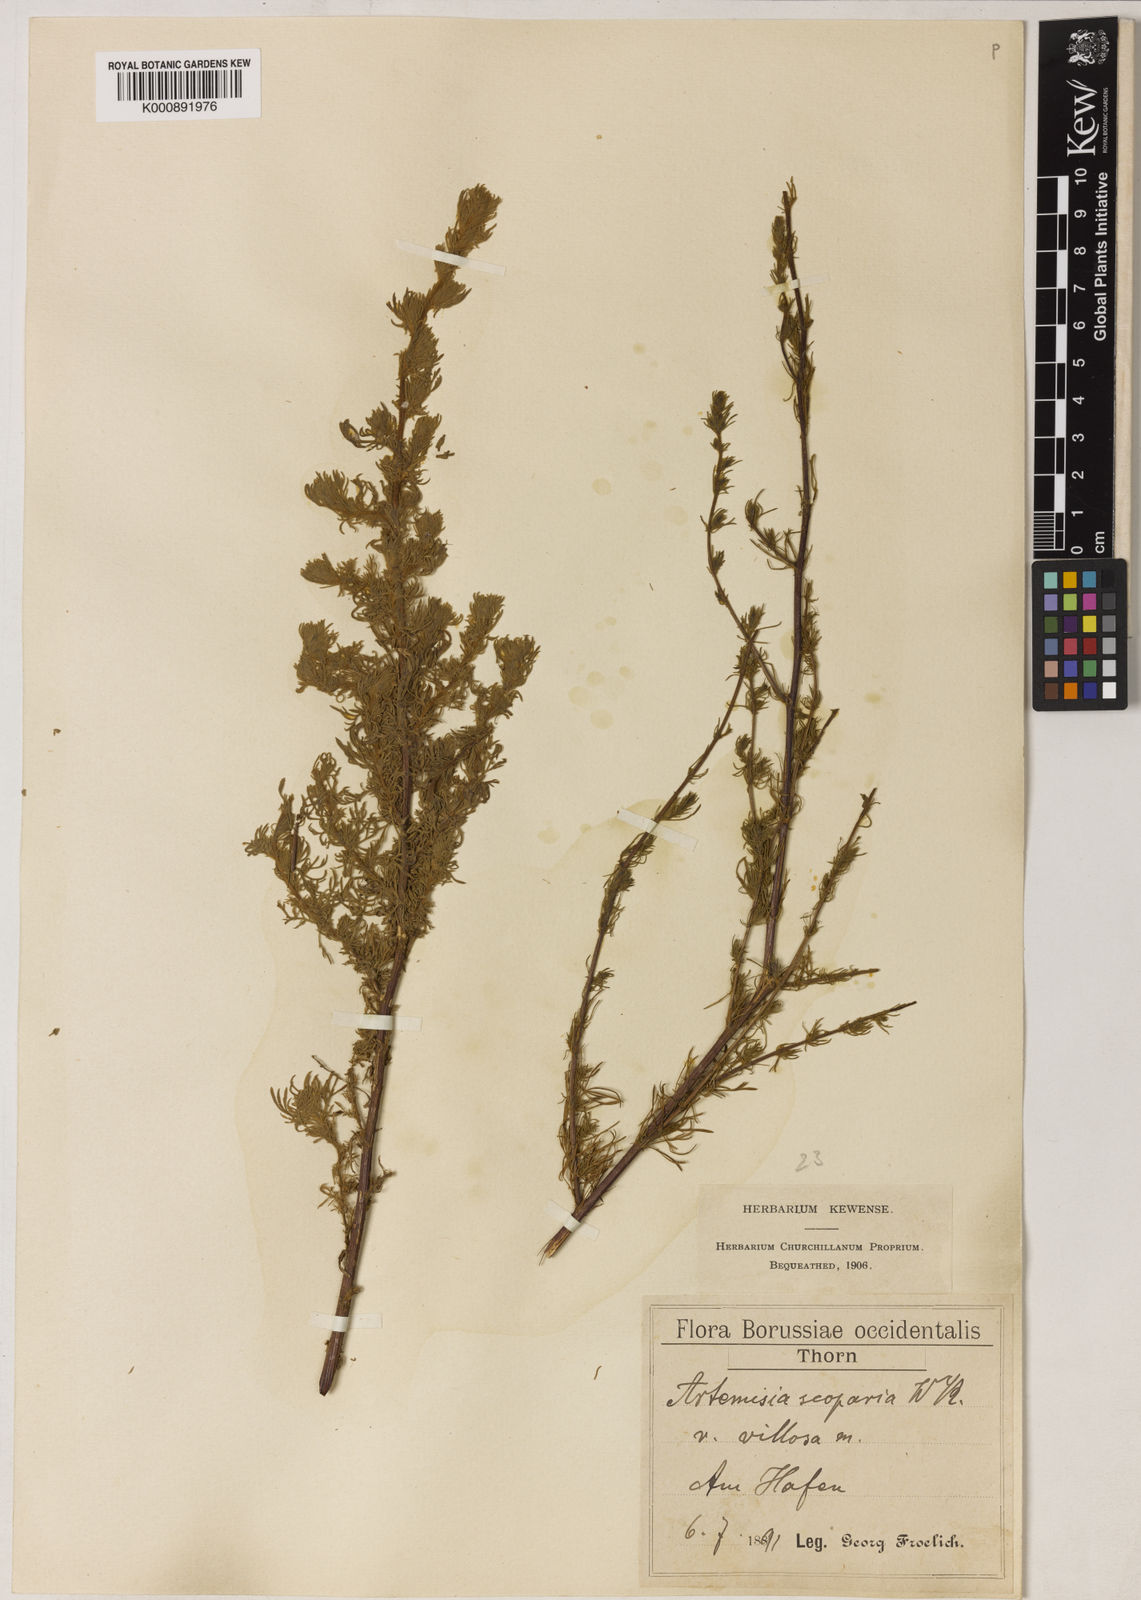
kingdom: Plantae
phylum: Tracheophyta
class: Magnoliopsida
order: Asterales
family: Asteraceae
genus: Artemisia
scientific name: Artemisia scoparia
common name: Redstem wormwood
